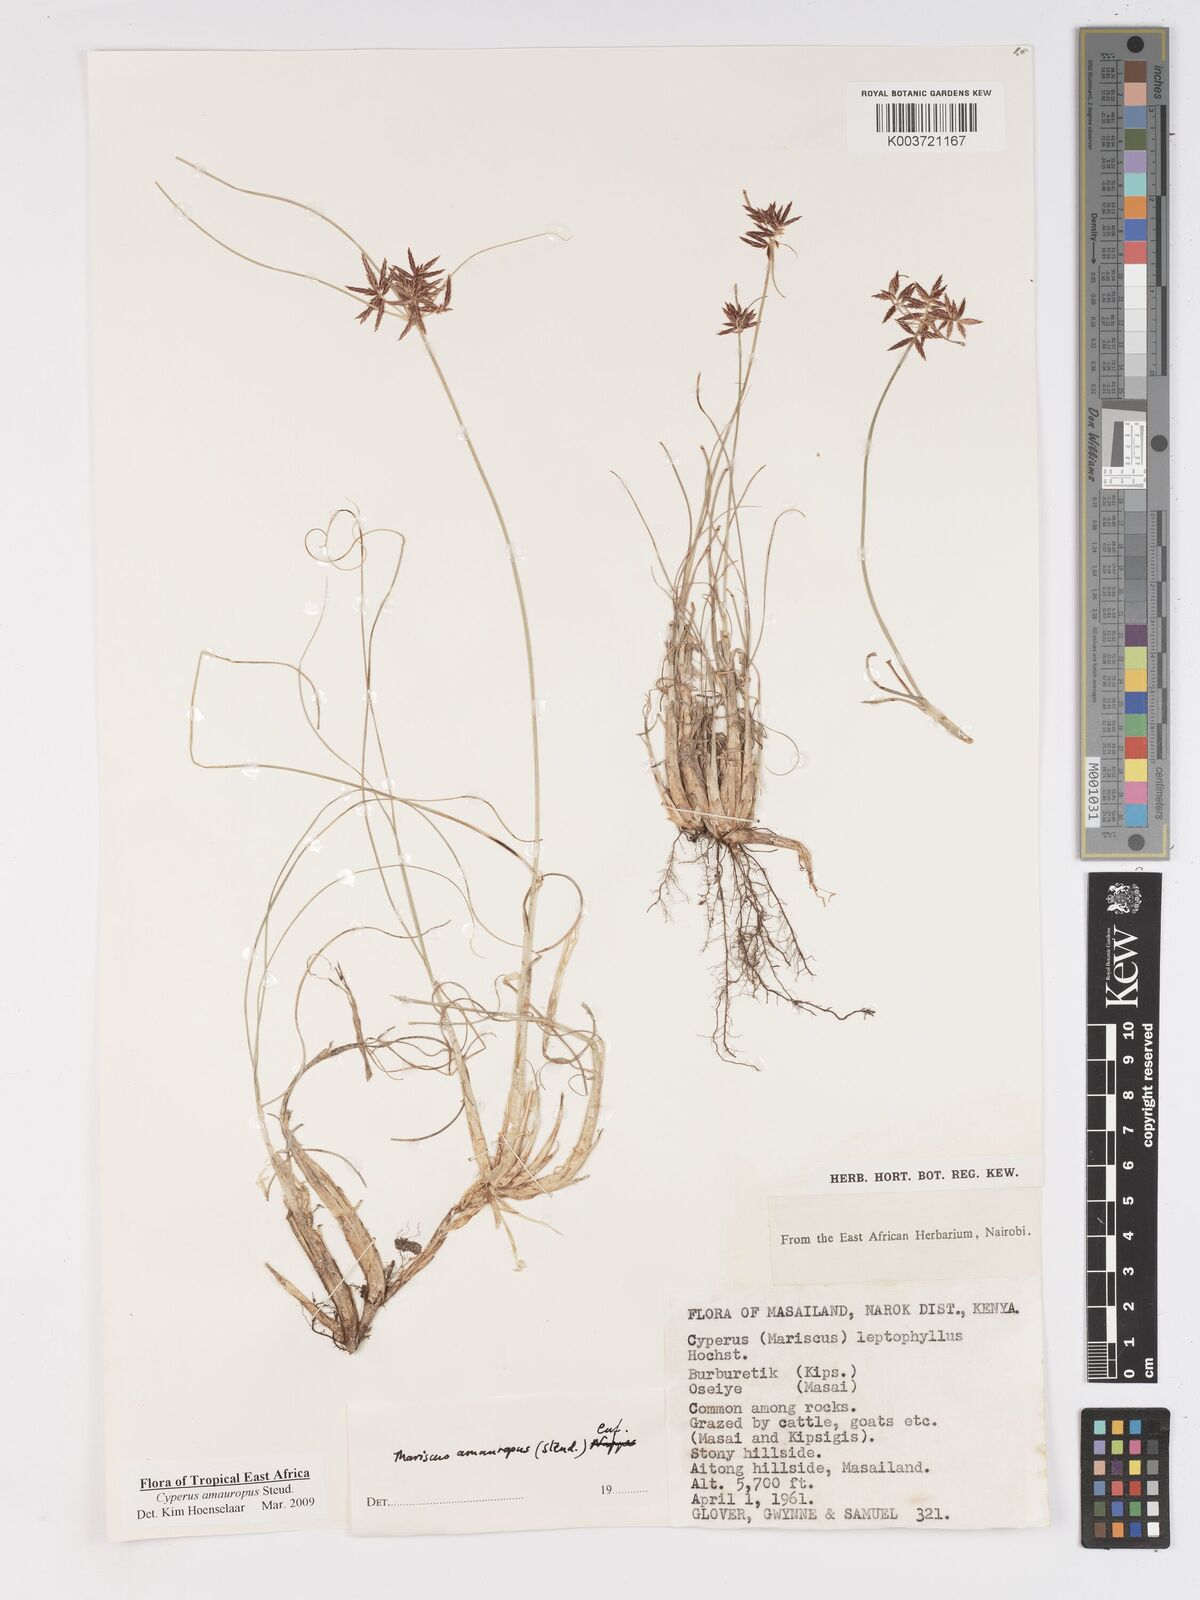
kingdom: Plantae
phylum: Tracheophyta
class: Liliopsida
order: Poales
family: Cyperaceae
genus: Cyperus
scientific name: Cyperus amauropus
